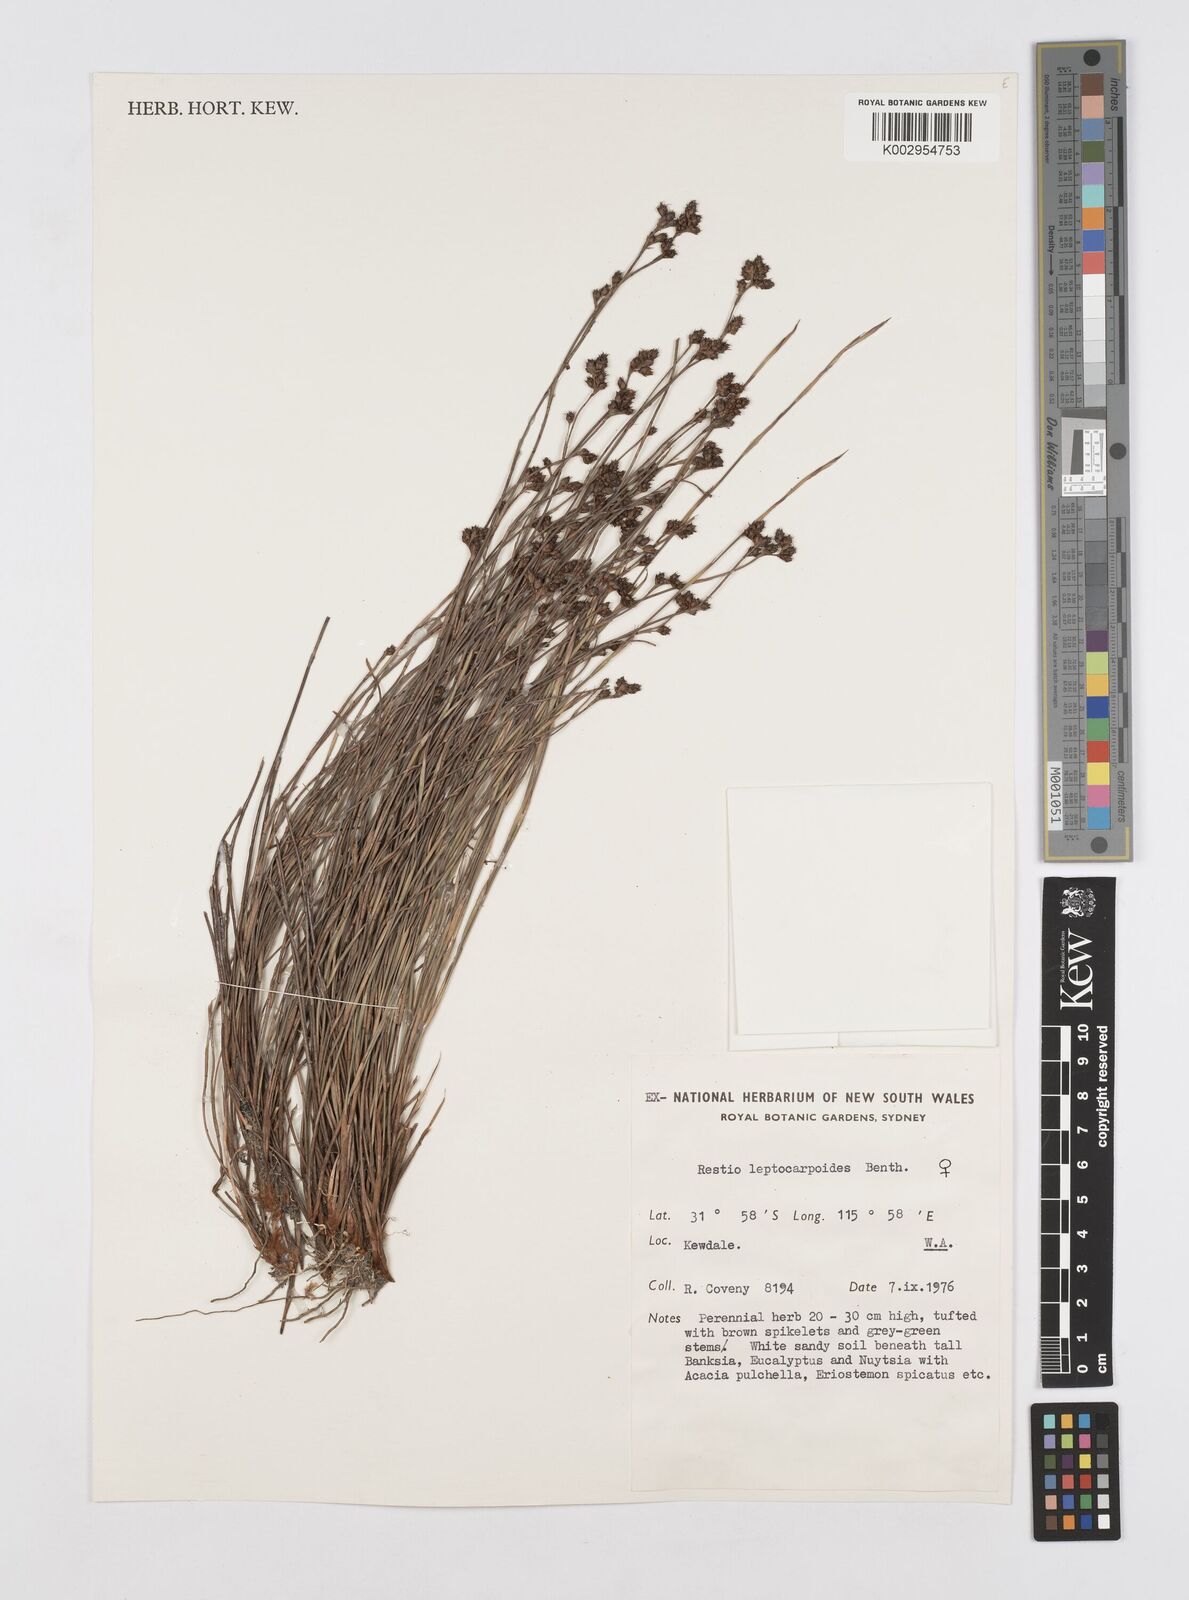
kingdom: Plantae
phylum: Tracheophyta
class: Liliopsida
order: Poales
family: Restionaceae
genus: Cytogonidium
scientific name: Cytogonidium leptocarpoides
